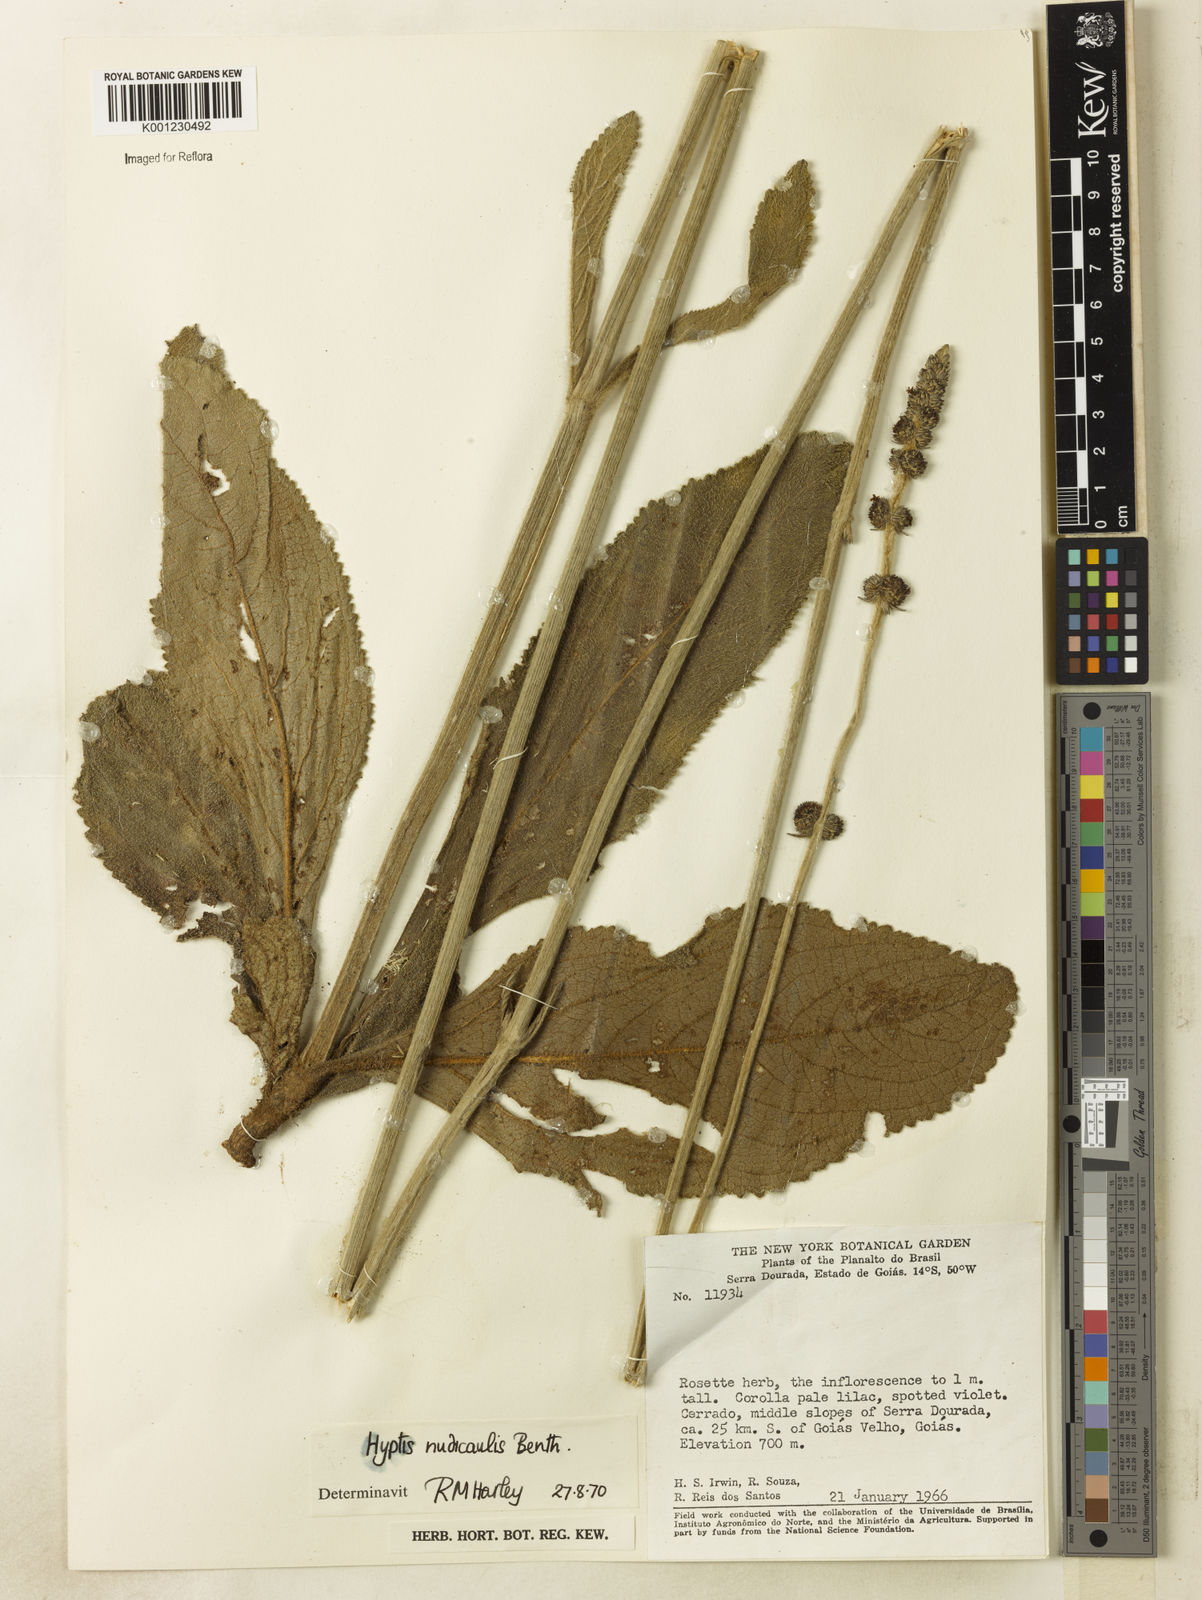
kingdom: Plantae
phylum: Tracheophyta
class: Magnoliopsida
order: Lamiales
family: Lamiaceae
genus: Hyptis
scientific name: Hyptis nudicaulis
